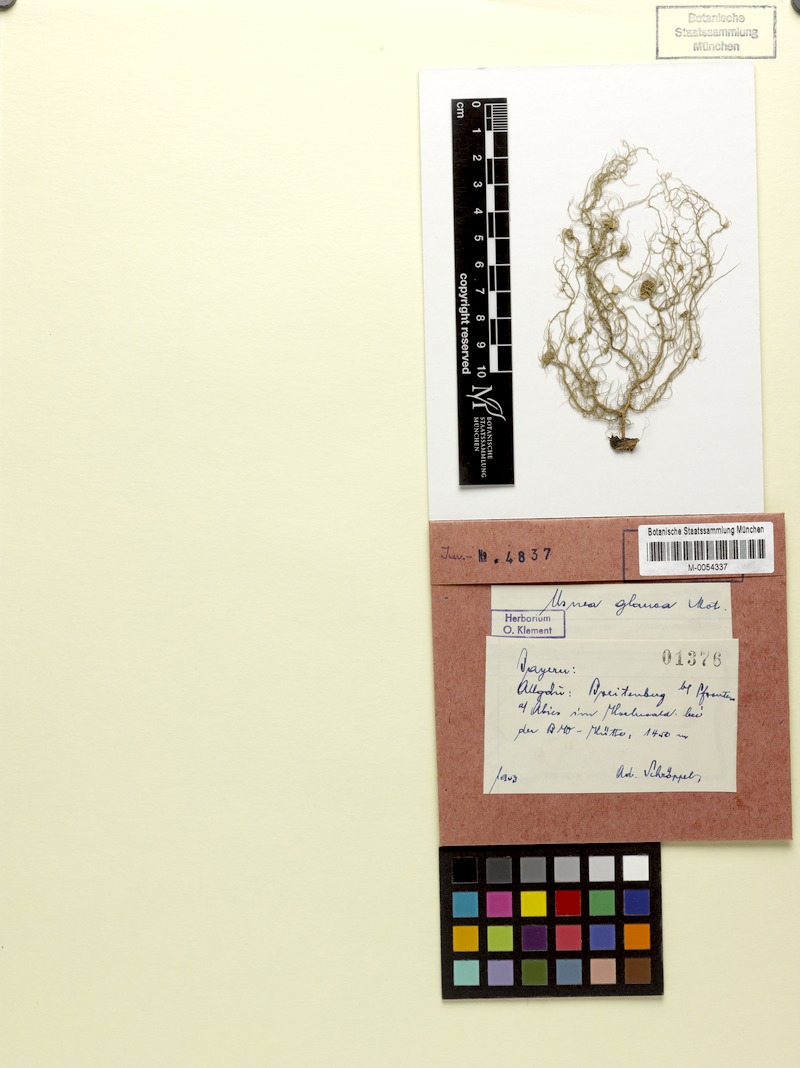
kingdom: Fungi
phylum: Ascomycota
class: Lecanoromycetes
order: Lecanorales
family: Parmeliaceae
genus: Usnea
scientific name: Usnea glauca
